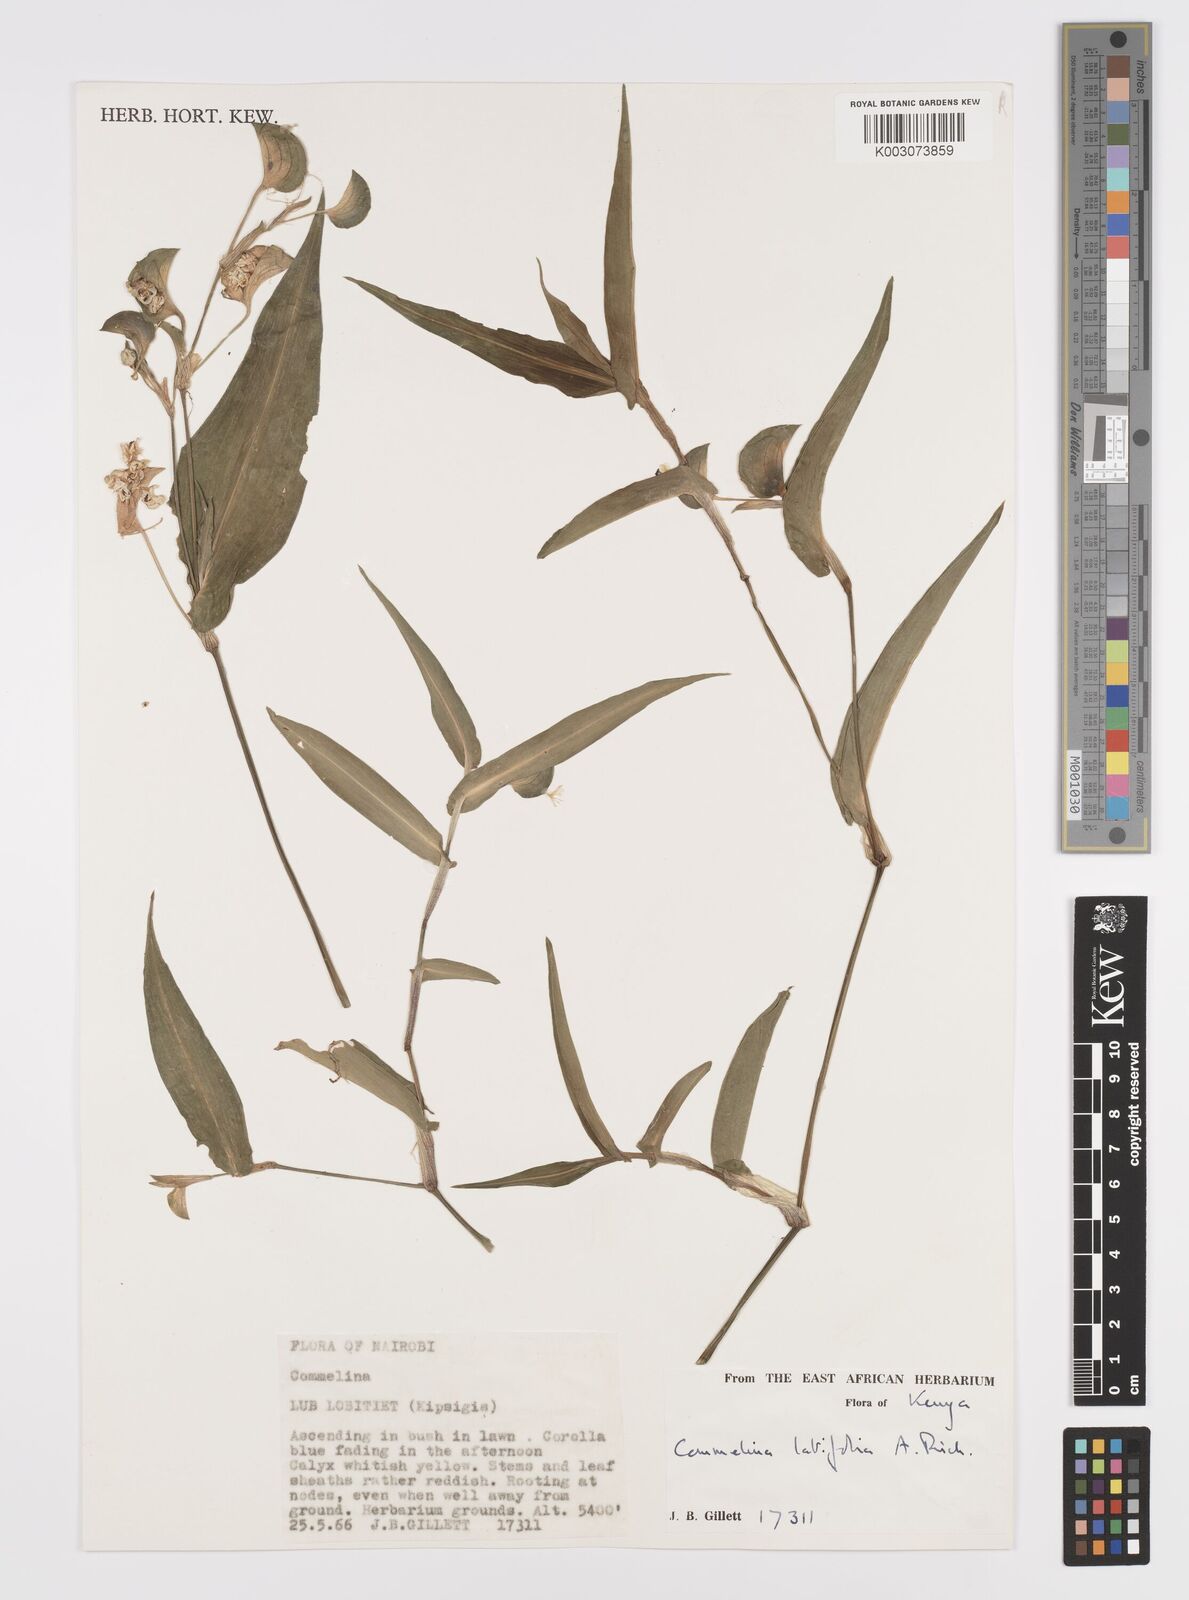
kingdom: Plantae
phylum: Tracheophyta
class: Liliopsida
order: Commelinales
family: Commelinaceae
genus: Commelina
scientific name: Commelina latifolia
